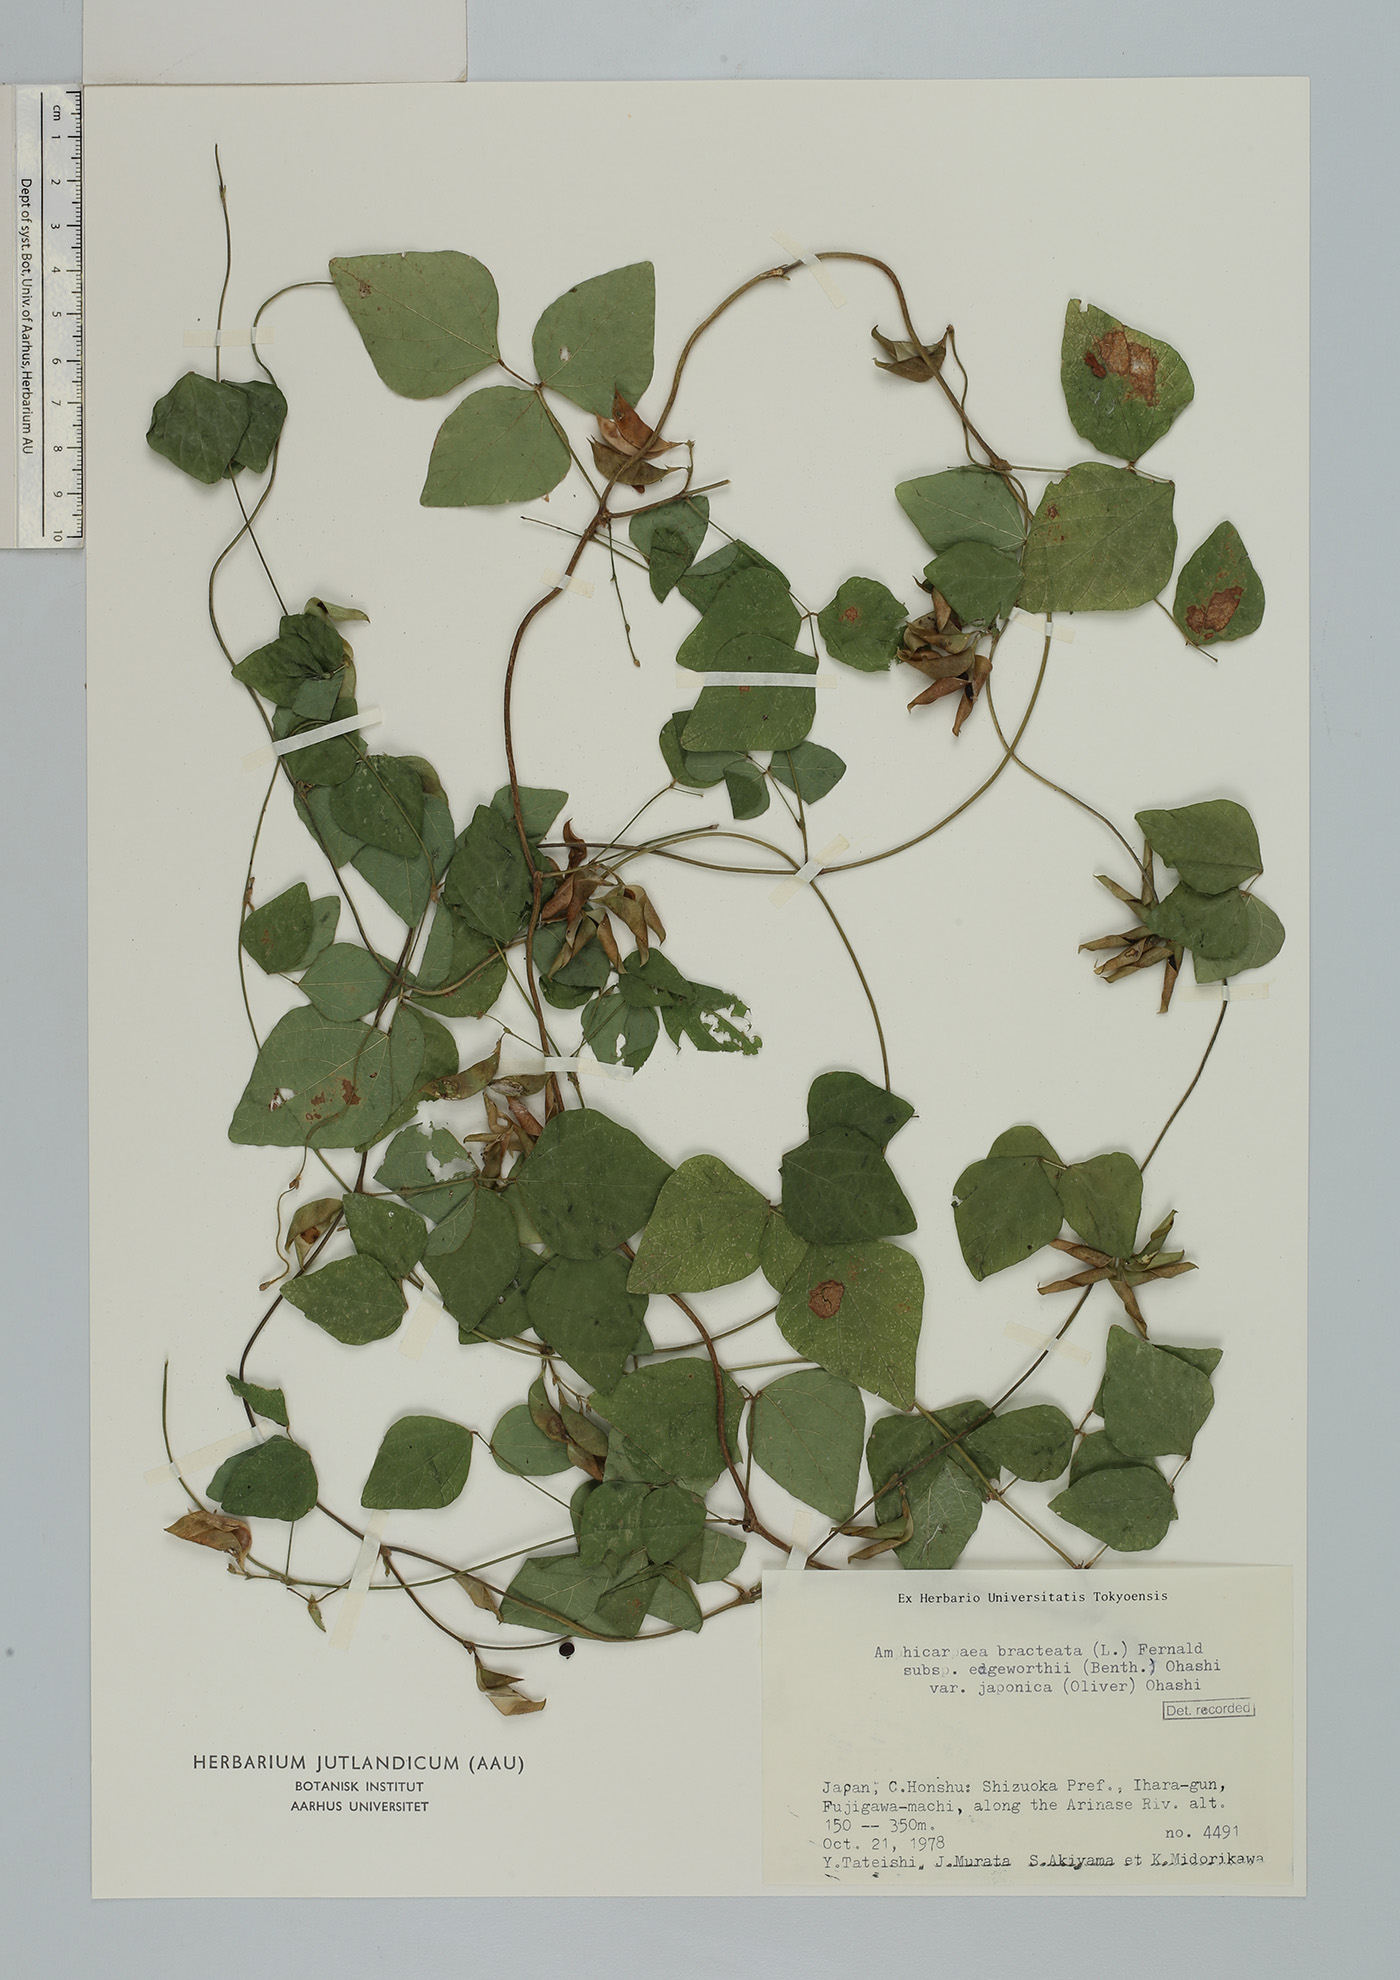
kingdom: Plantae
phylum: Tracheophyta
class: Magnoliopsida
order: Fabales
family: Fabaceae
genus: Amphicarpaea
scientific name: Amphicarpaea edgeworthii
